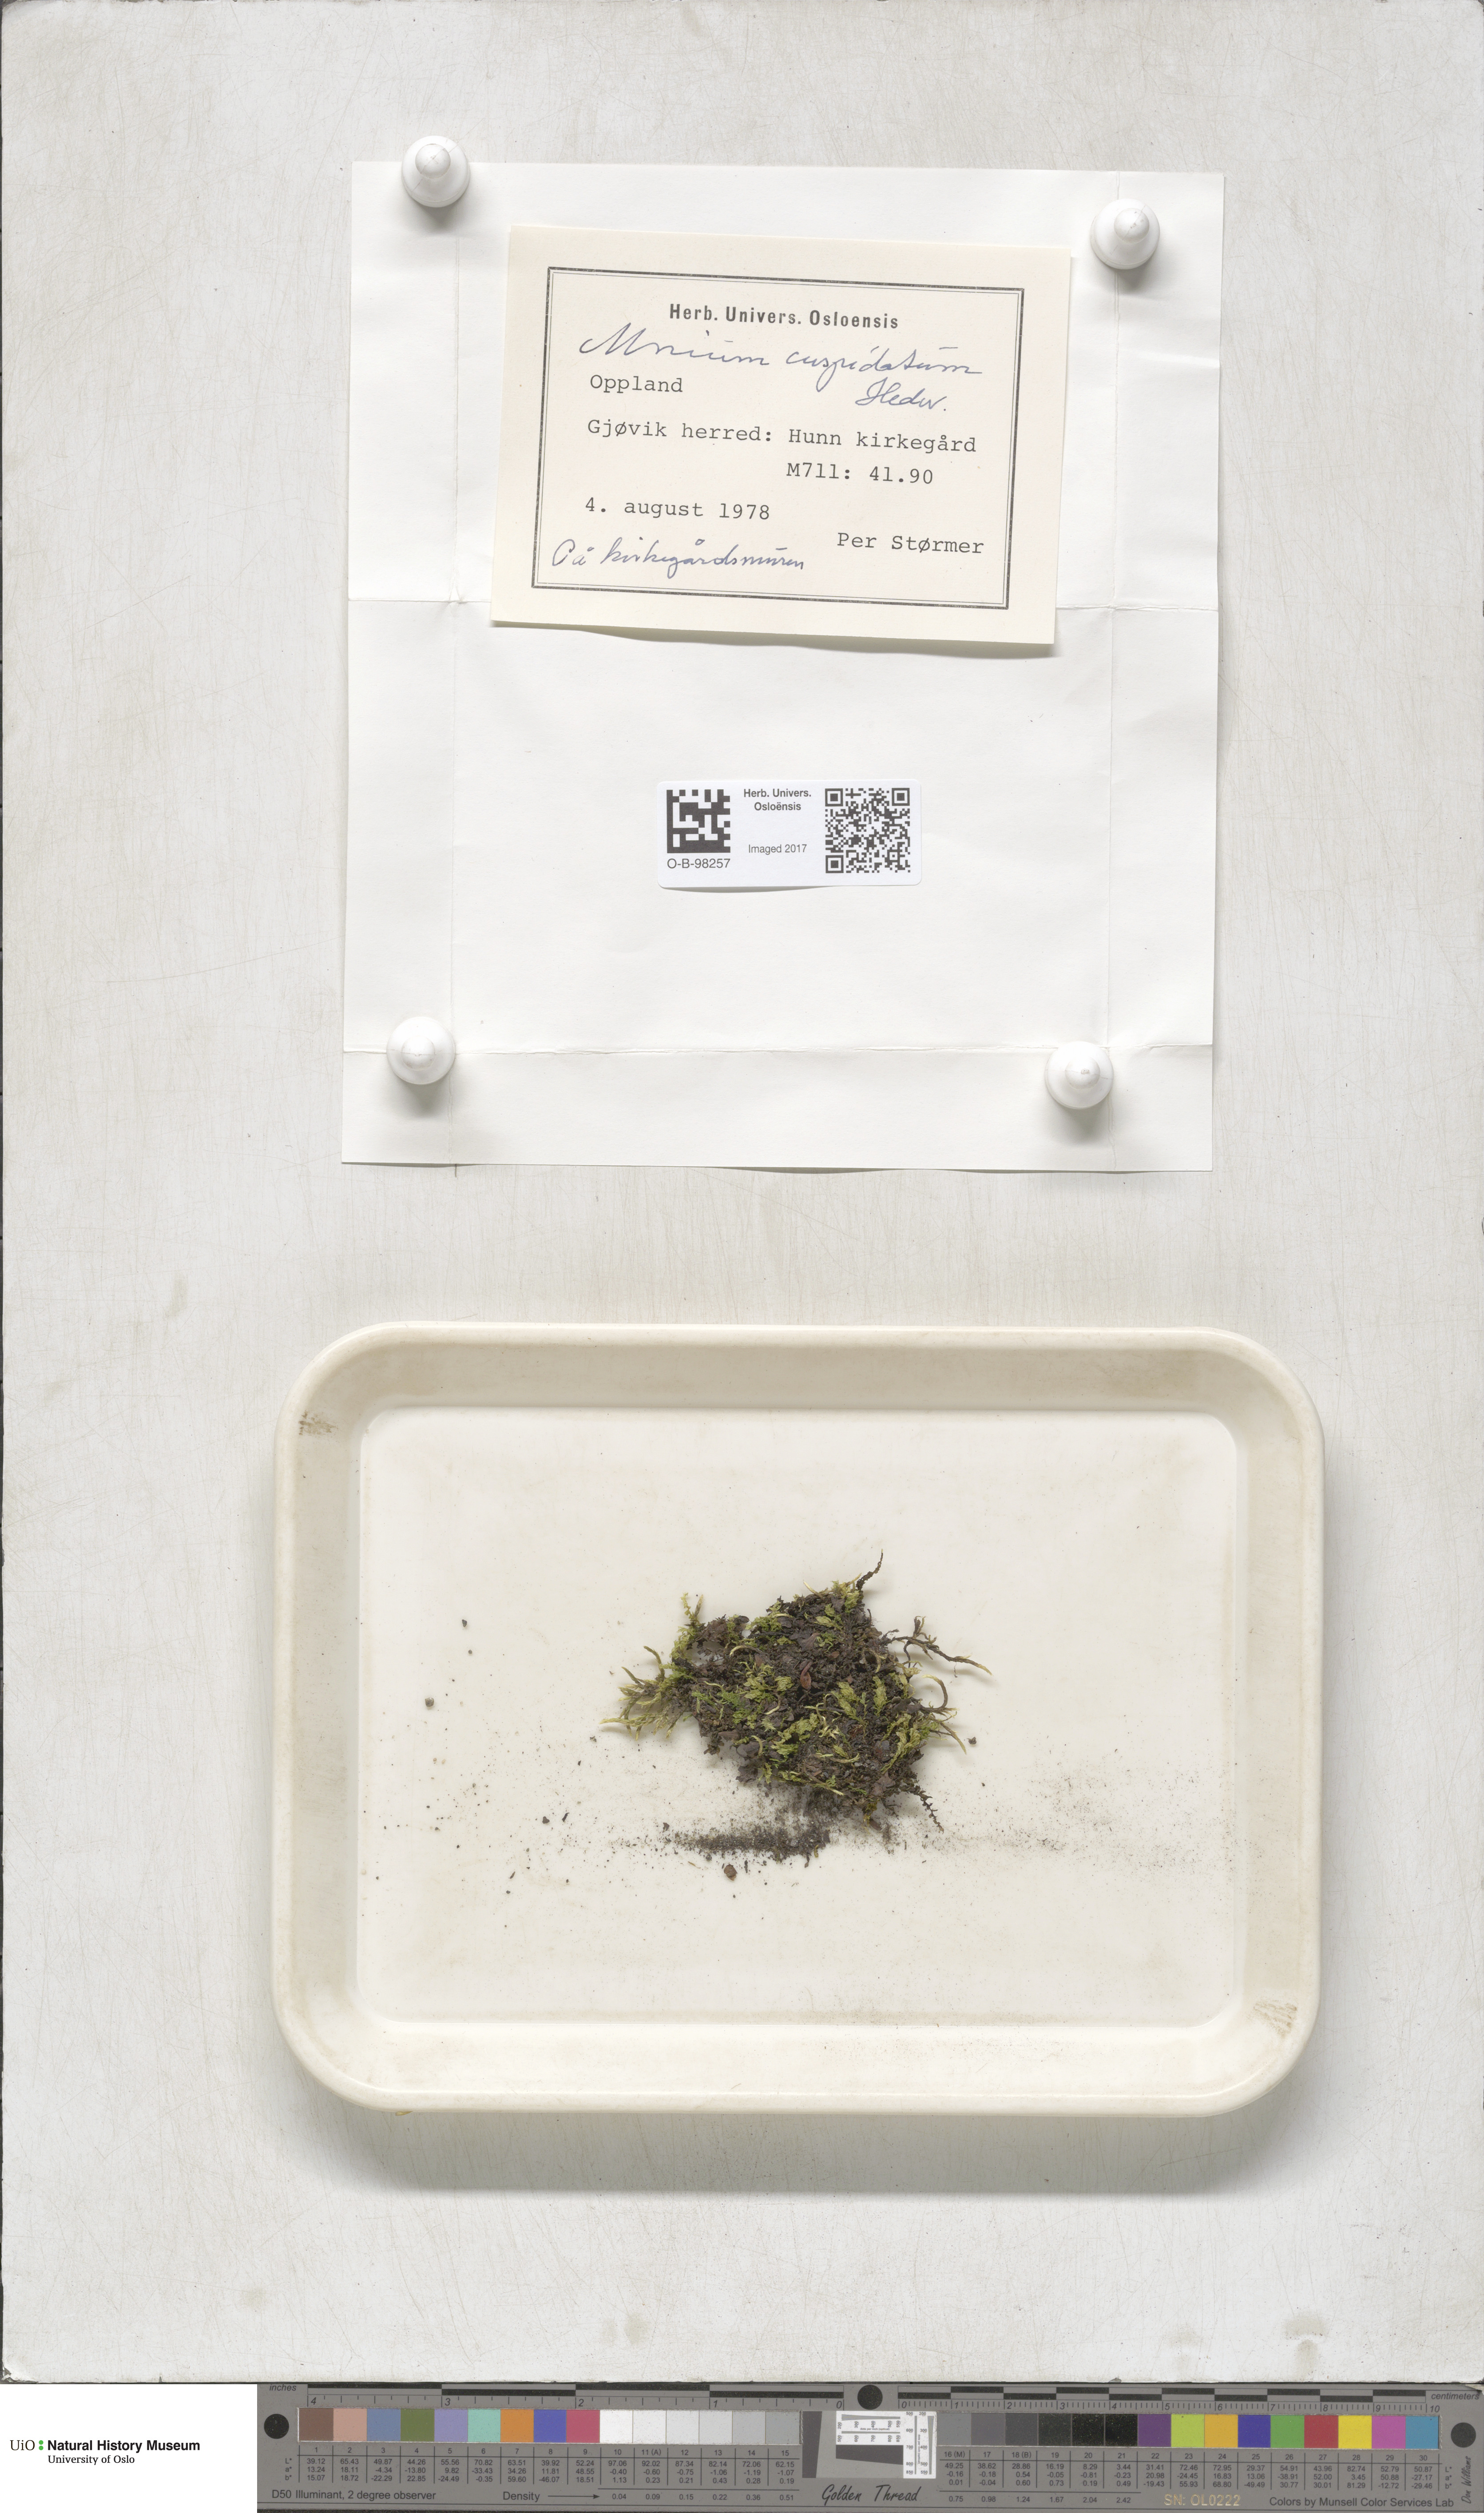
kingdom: Plantae
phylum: Bryophyta
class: Bryopsida
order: Bryales
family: Mniaceae
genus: Plagiomnium
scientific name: Plagiomnium cuspidatum
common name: Woodsy leafy moss
